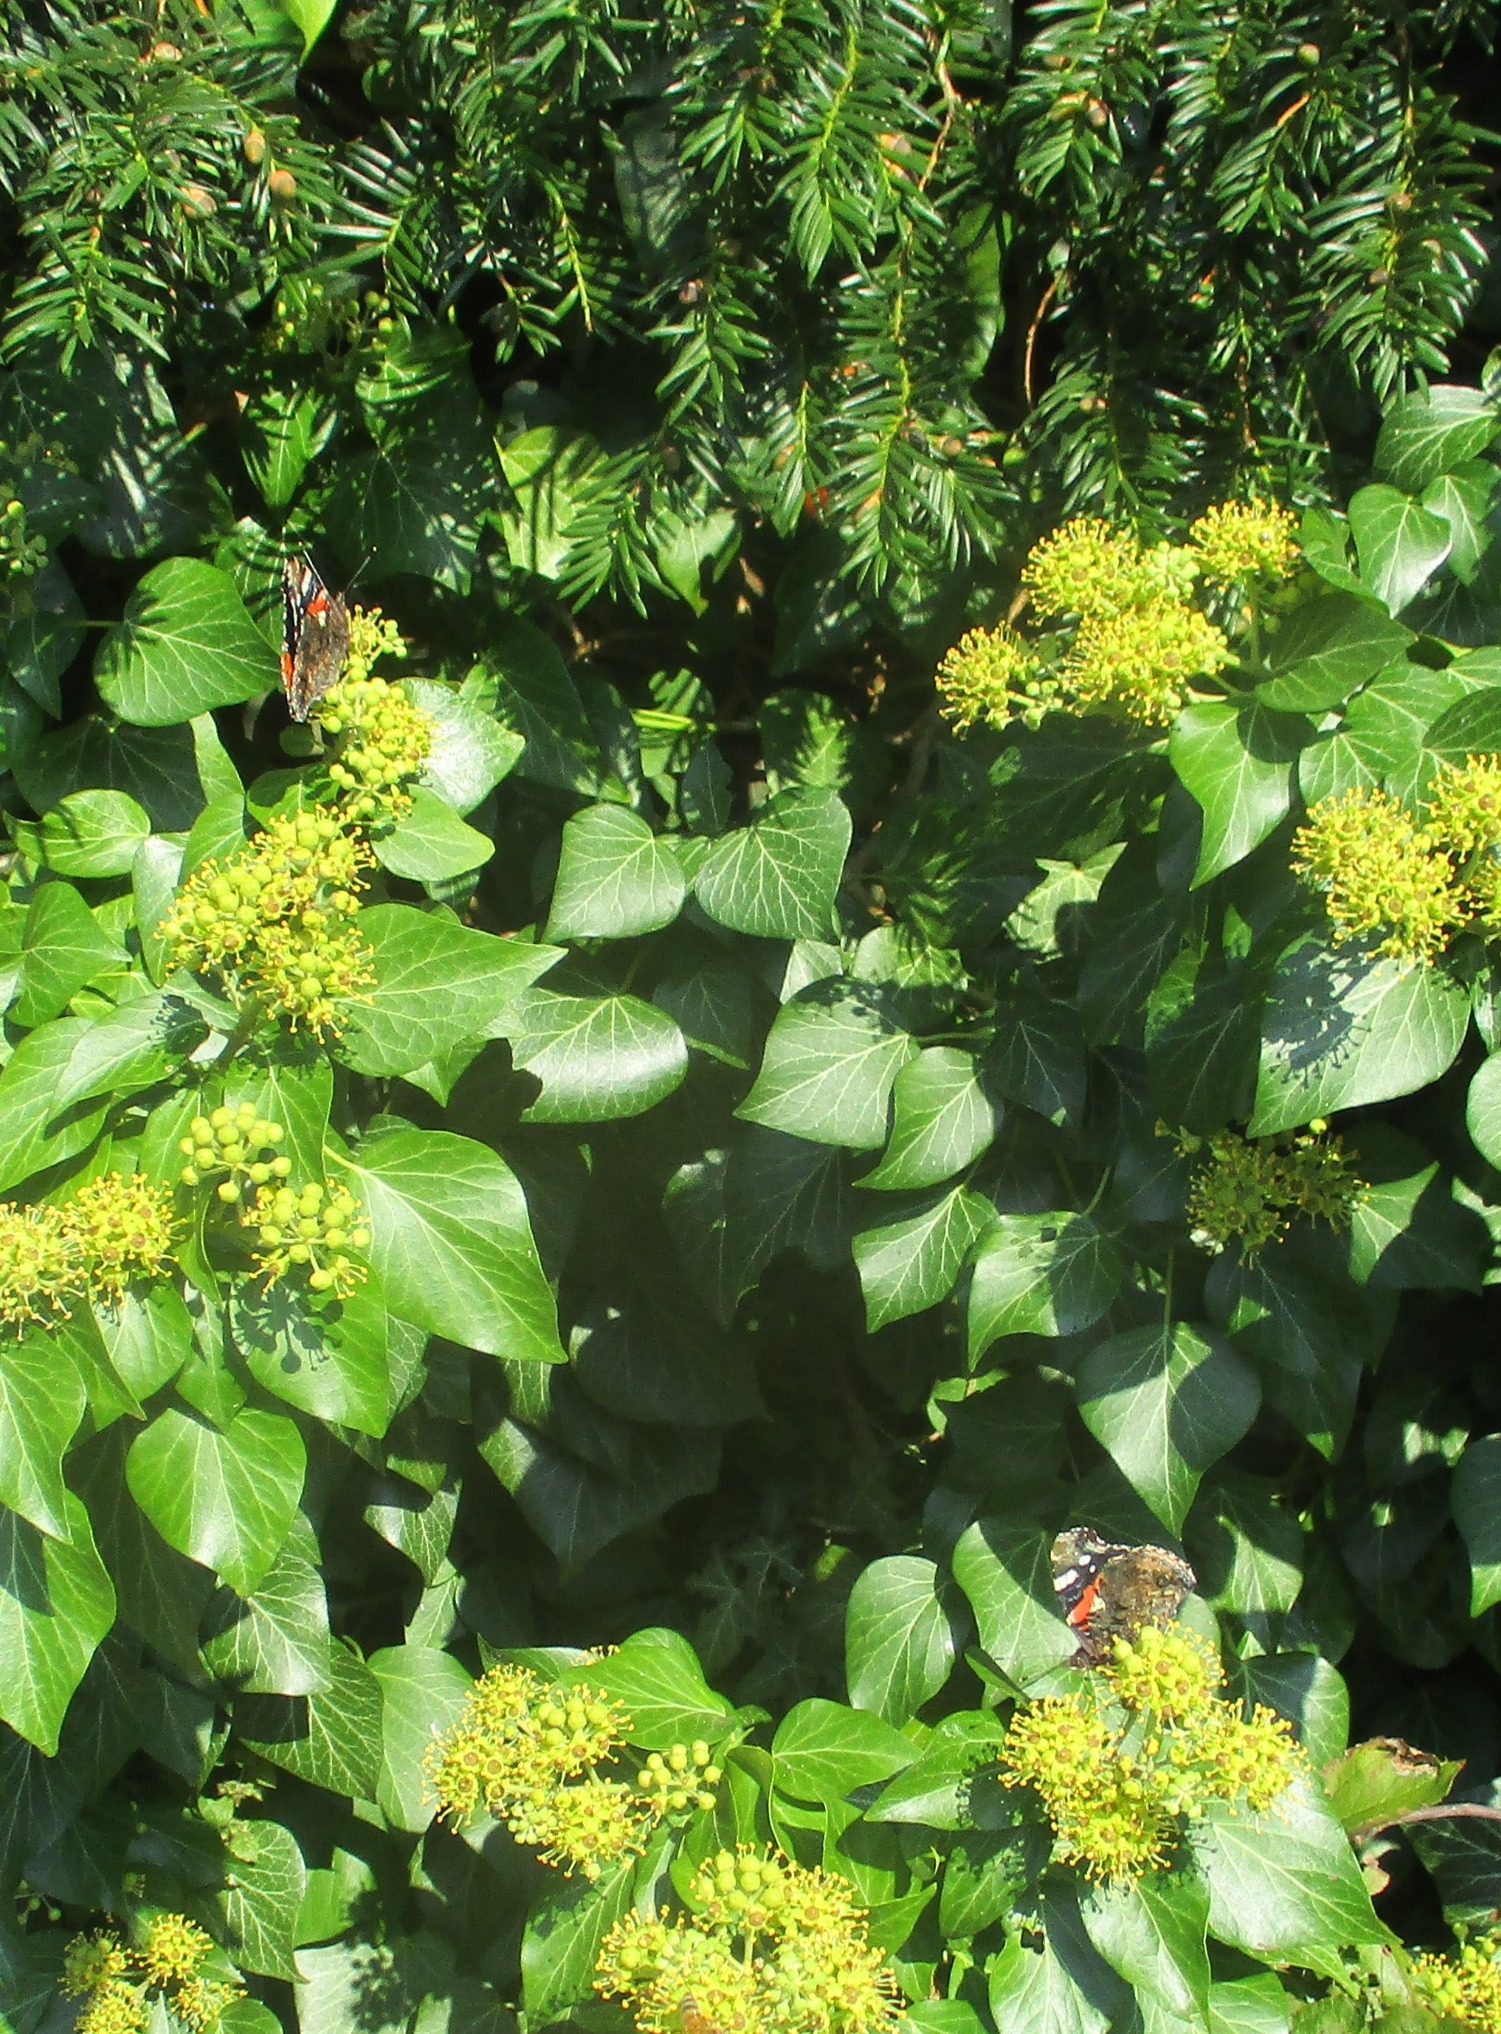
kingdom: Animalia
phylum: Arthropoda
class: Insecta
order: Lepidoptera
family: Nymphalidae
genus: Vanessa
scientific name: Vanessa atalanta
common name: Admiral
